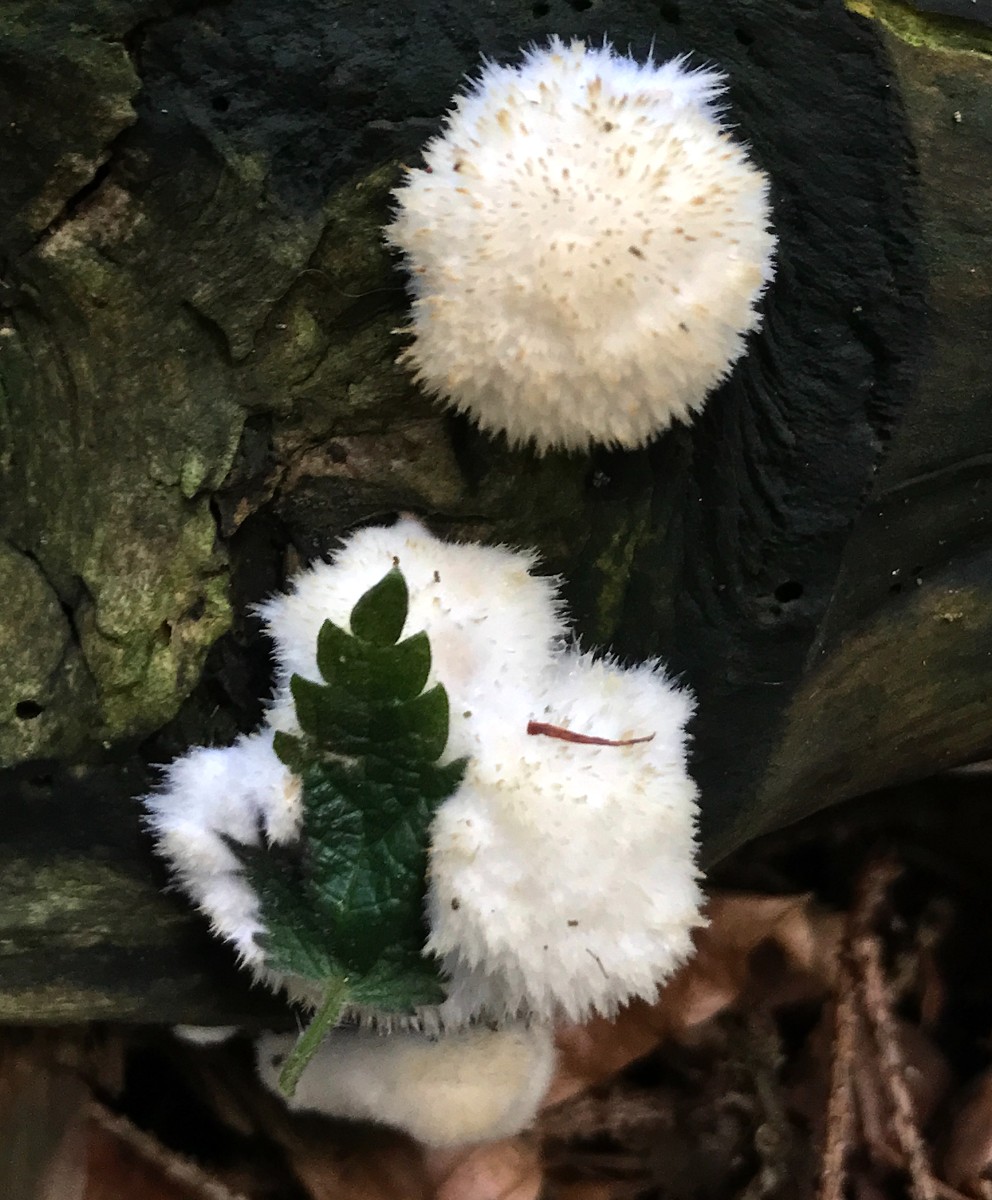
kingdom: Fungi
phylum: Basidiomycota
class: Agaricomycetes
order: Polyporales
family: Dacryobolaceae
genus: Postia
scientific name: Postia ptychogaster
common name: støvende kødporesvamp
